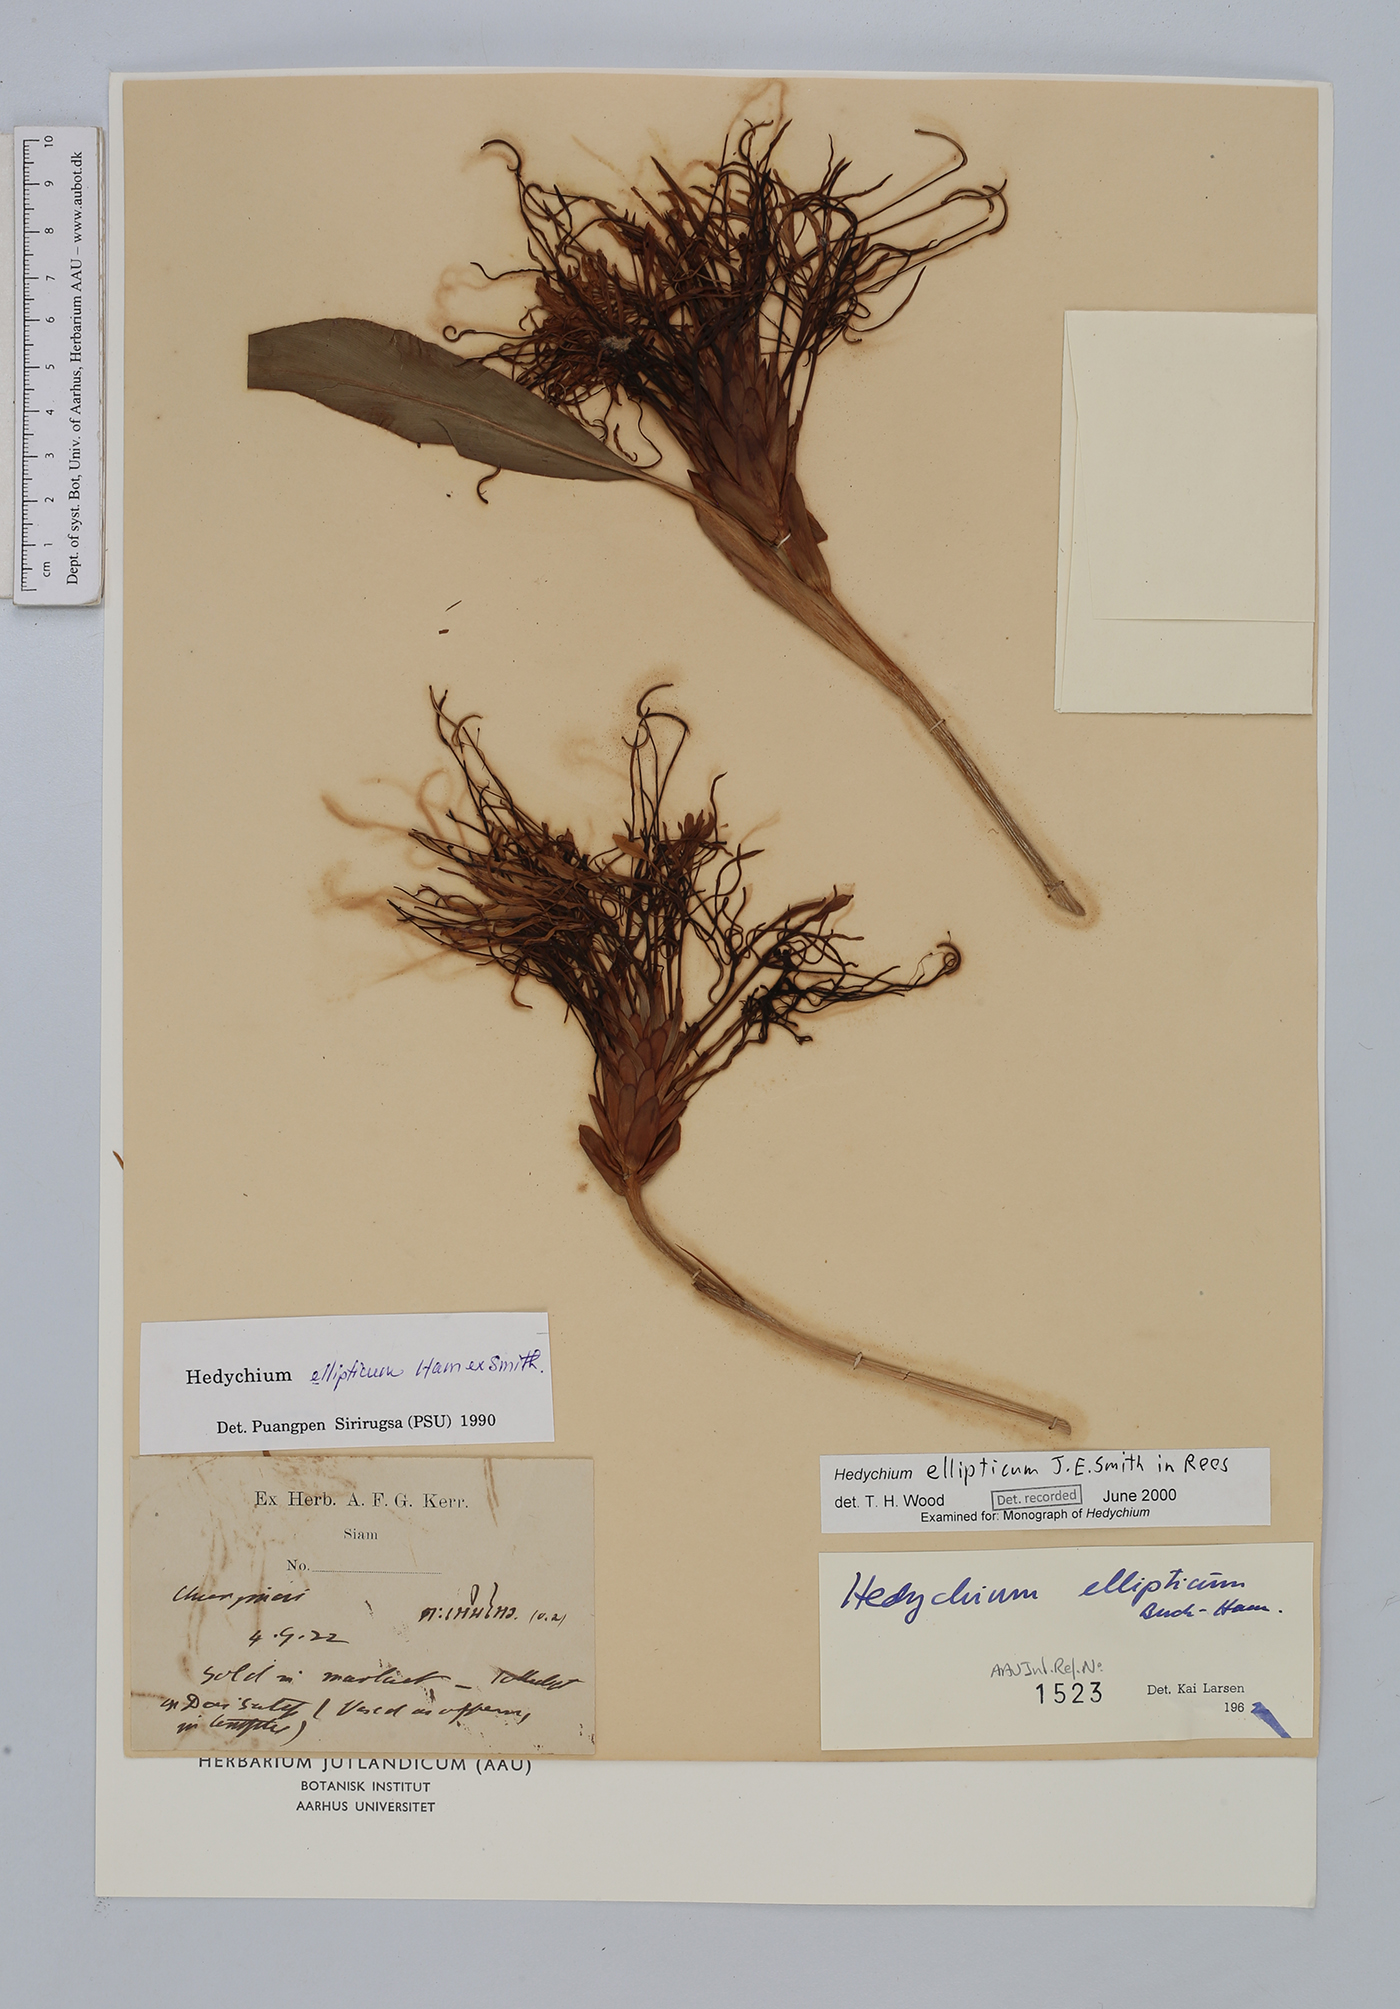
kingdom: Plantae
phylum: Tracheophyta
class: Liliopsida
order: Zingiberales
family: Zingiberaceae
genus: Hedychium
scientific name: Hedychium ellipticum
